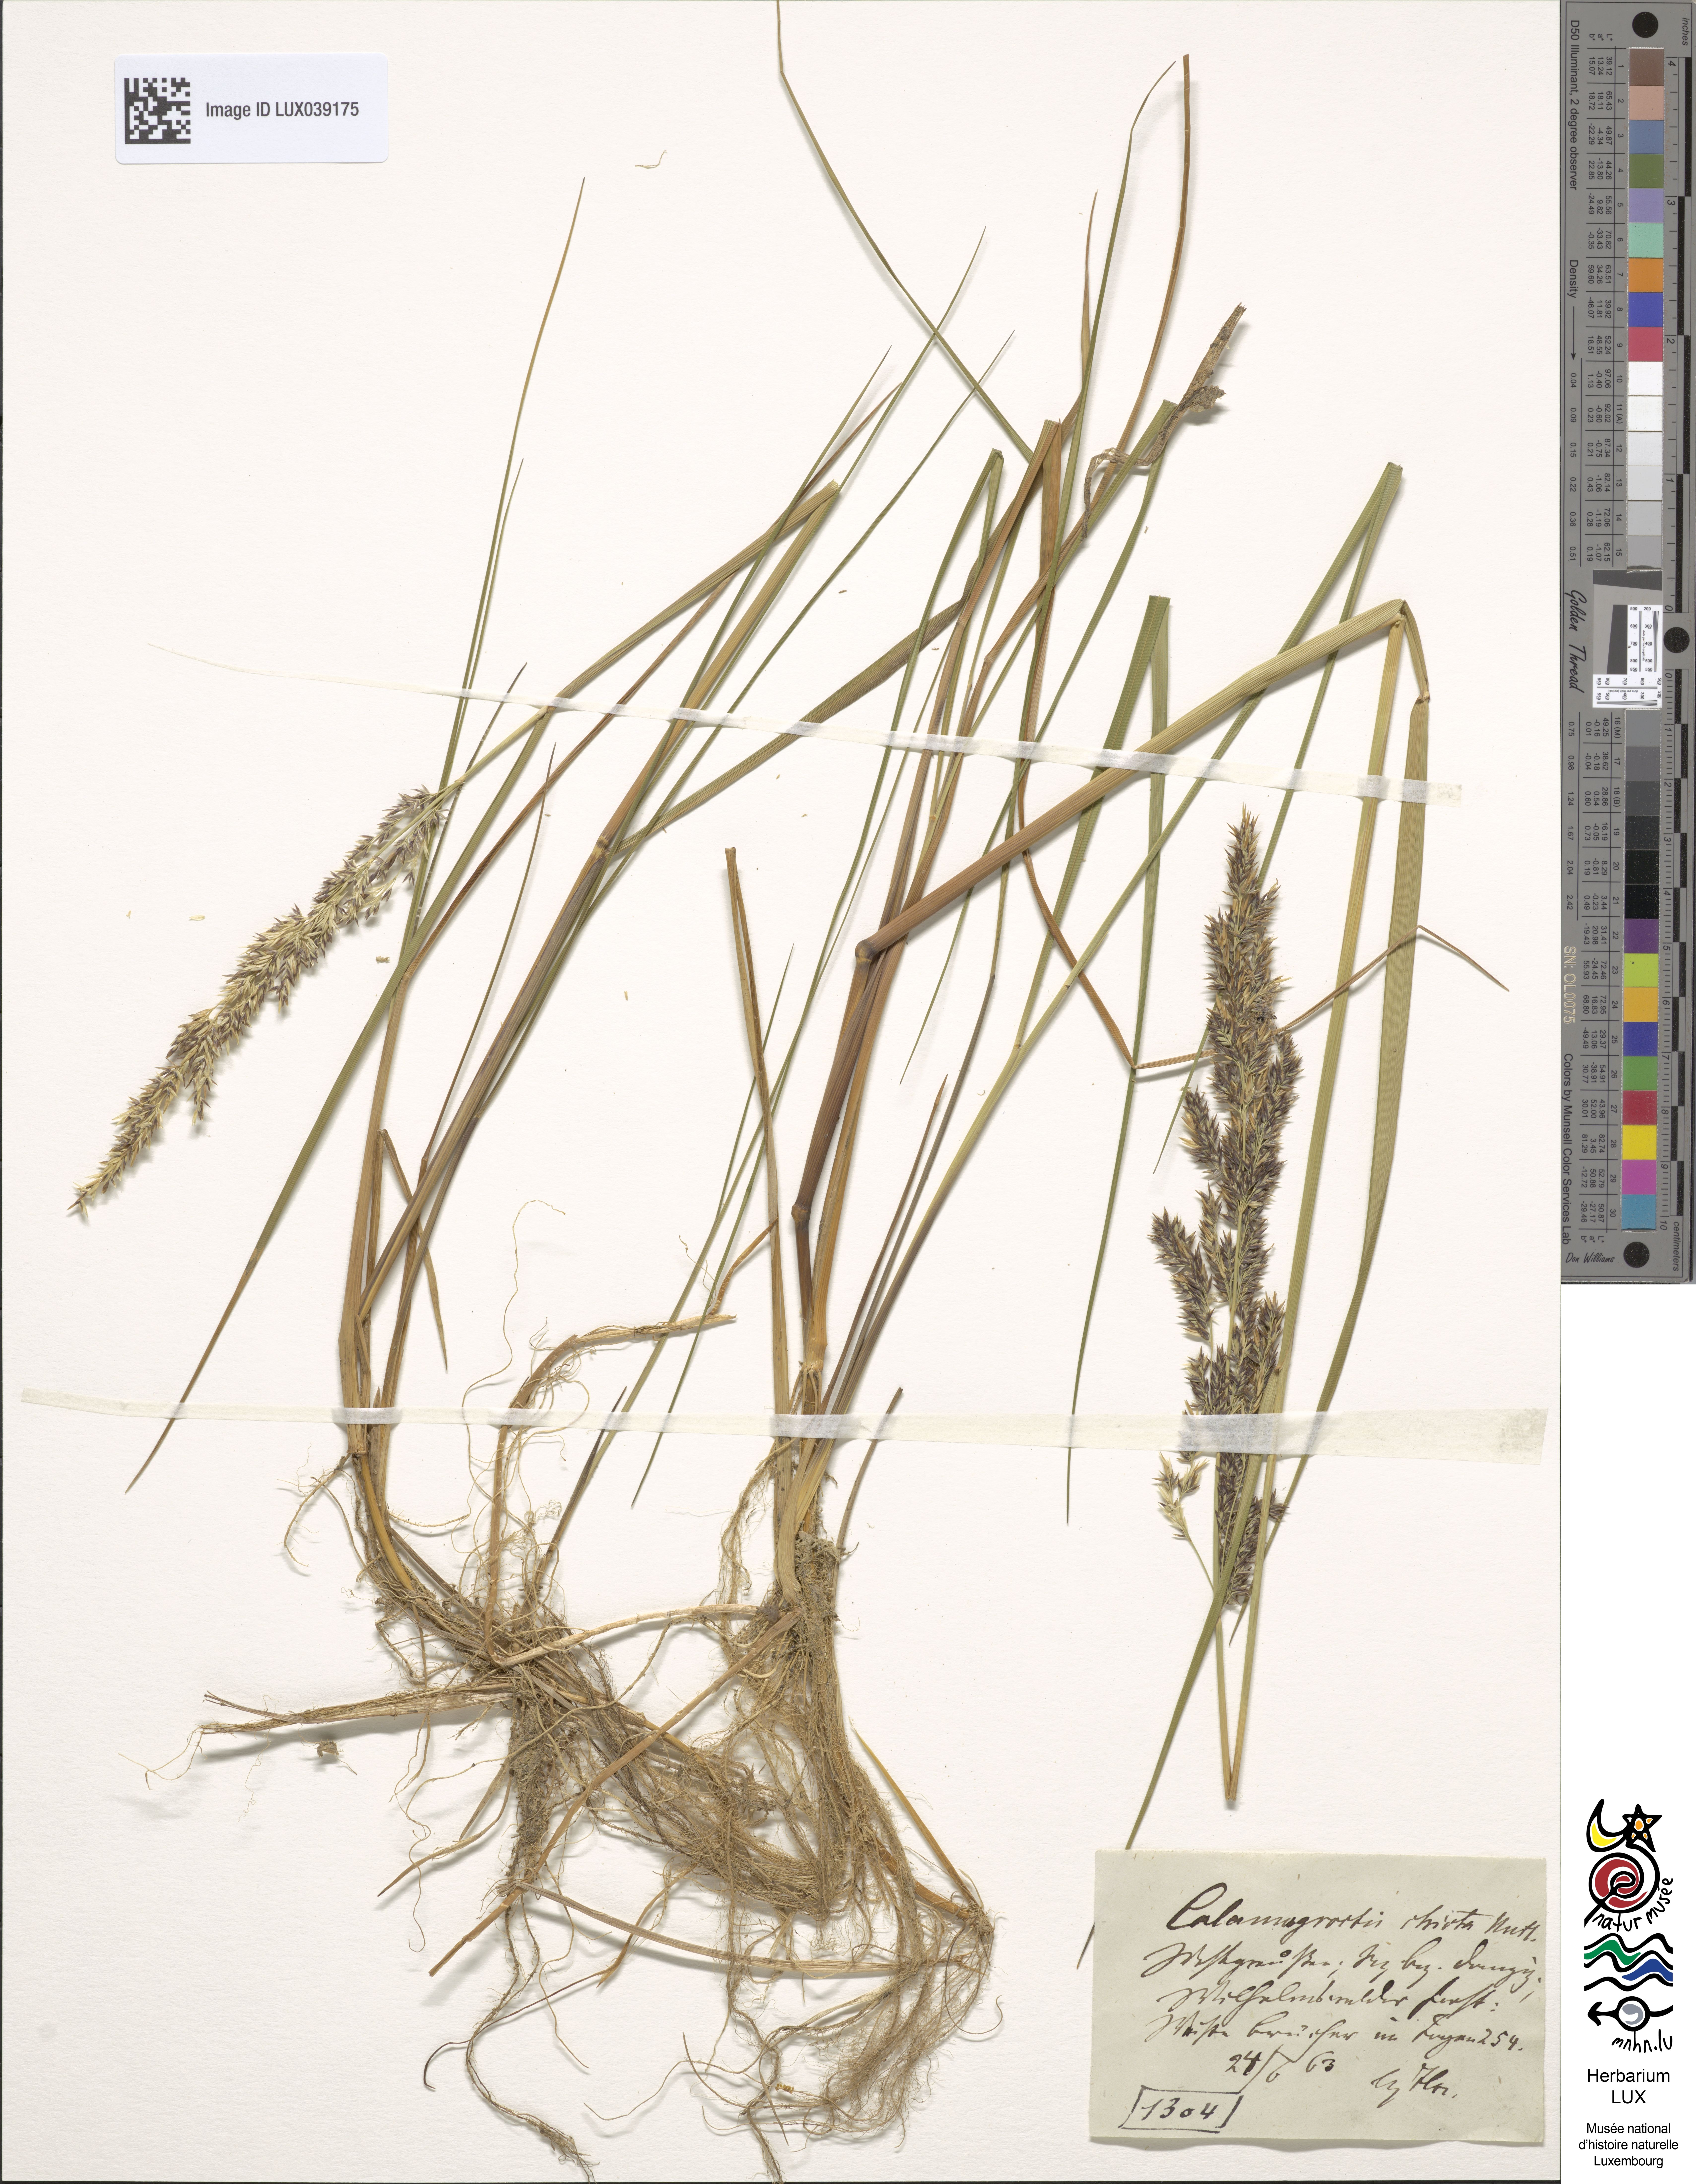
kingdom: Plantae
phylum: Tracheophyta
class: Liliopsida
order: Poales
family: Poaceae
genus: Calamagrostis
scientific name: Calamagrostis stricta
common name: Narrow small-reed
